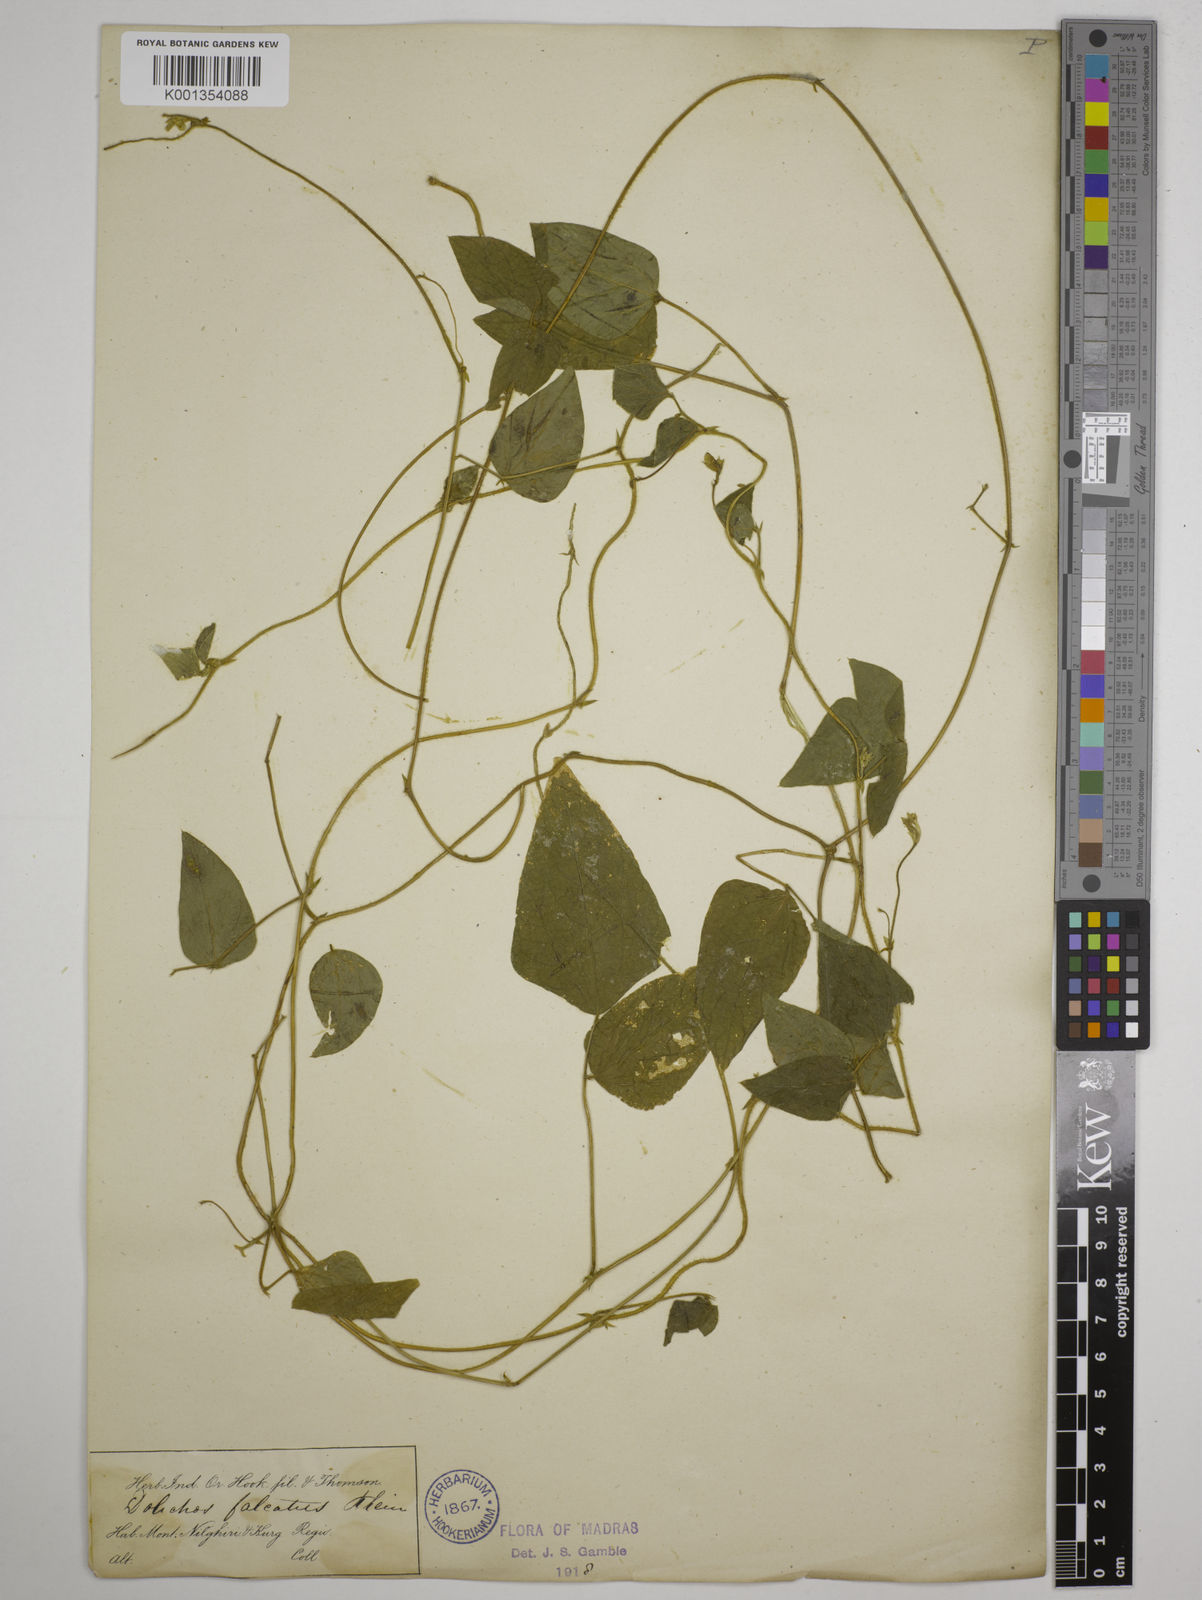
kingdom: Plantae
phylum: Tracheophyta
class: Magnoliopsida
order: Fabales
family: Fabaceae
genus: Dolichos
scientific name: Dolichos
